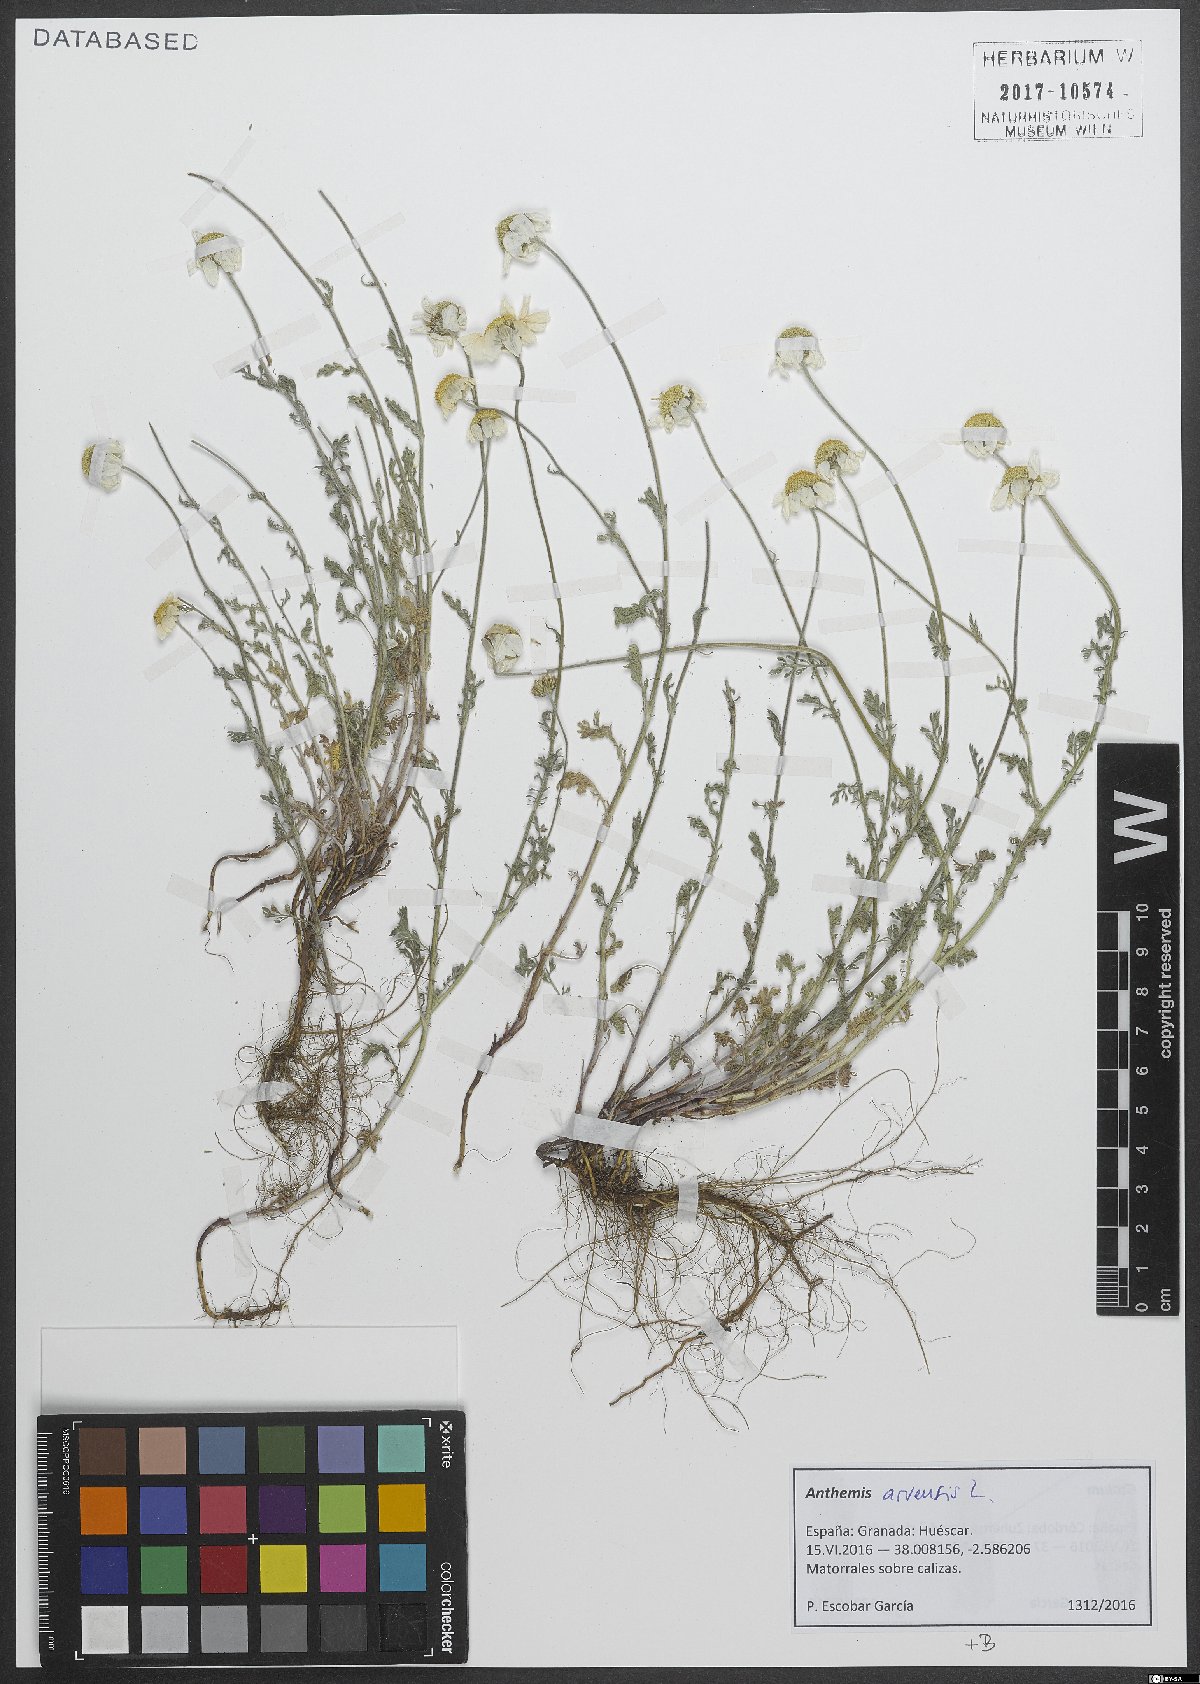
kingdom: Plantae
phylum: Tracheophyta
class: Magnoliopsida
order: Asterales
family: Asteraceae
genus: Anthemis
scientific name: Anthemis arvensis
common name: Corn chamomile
